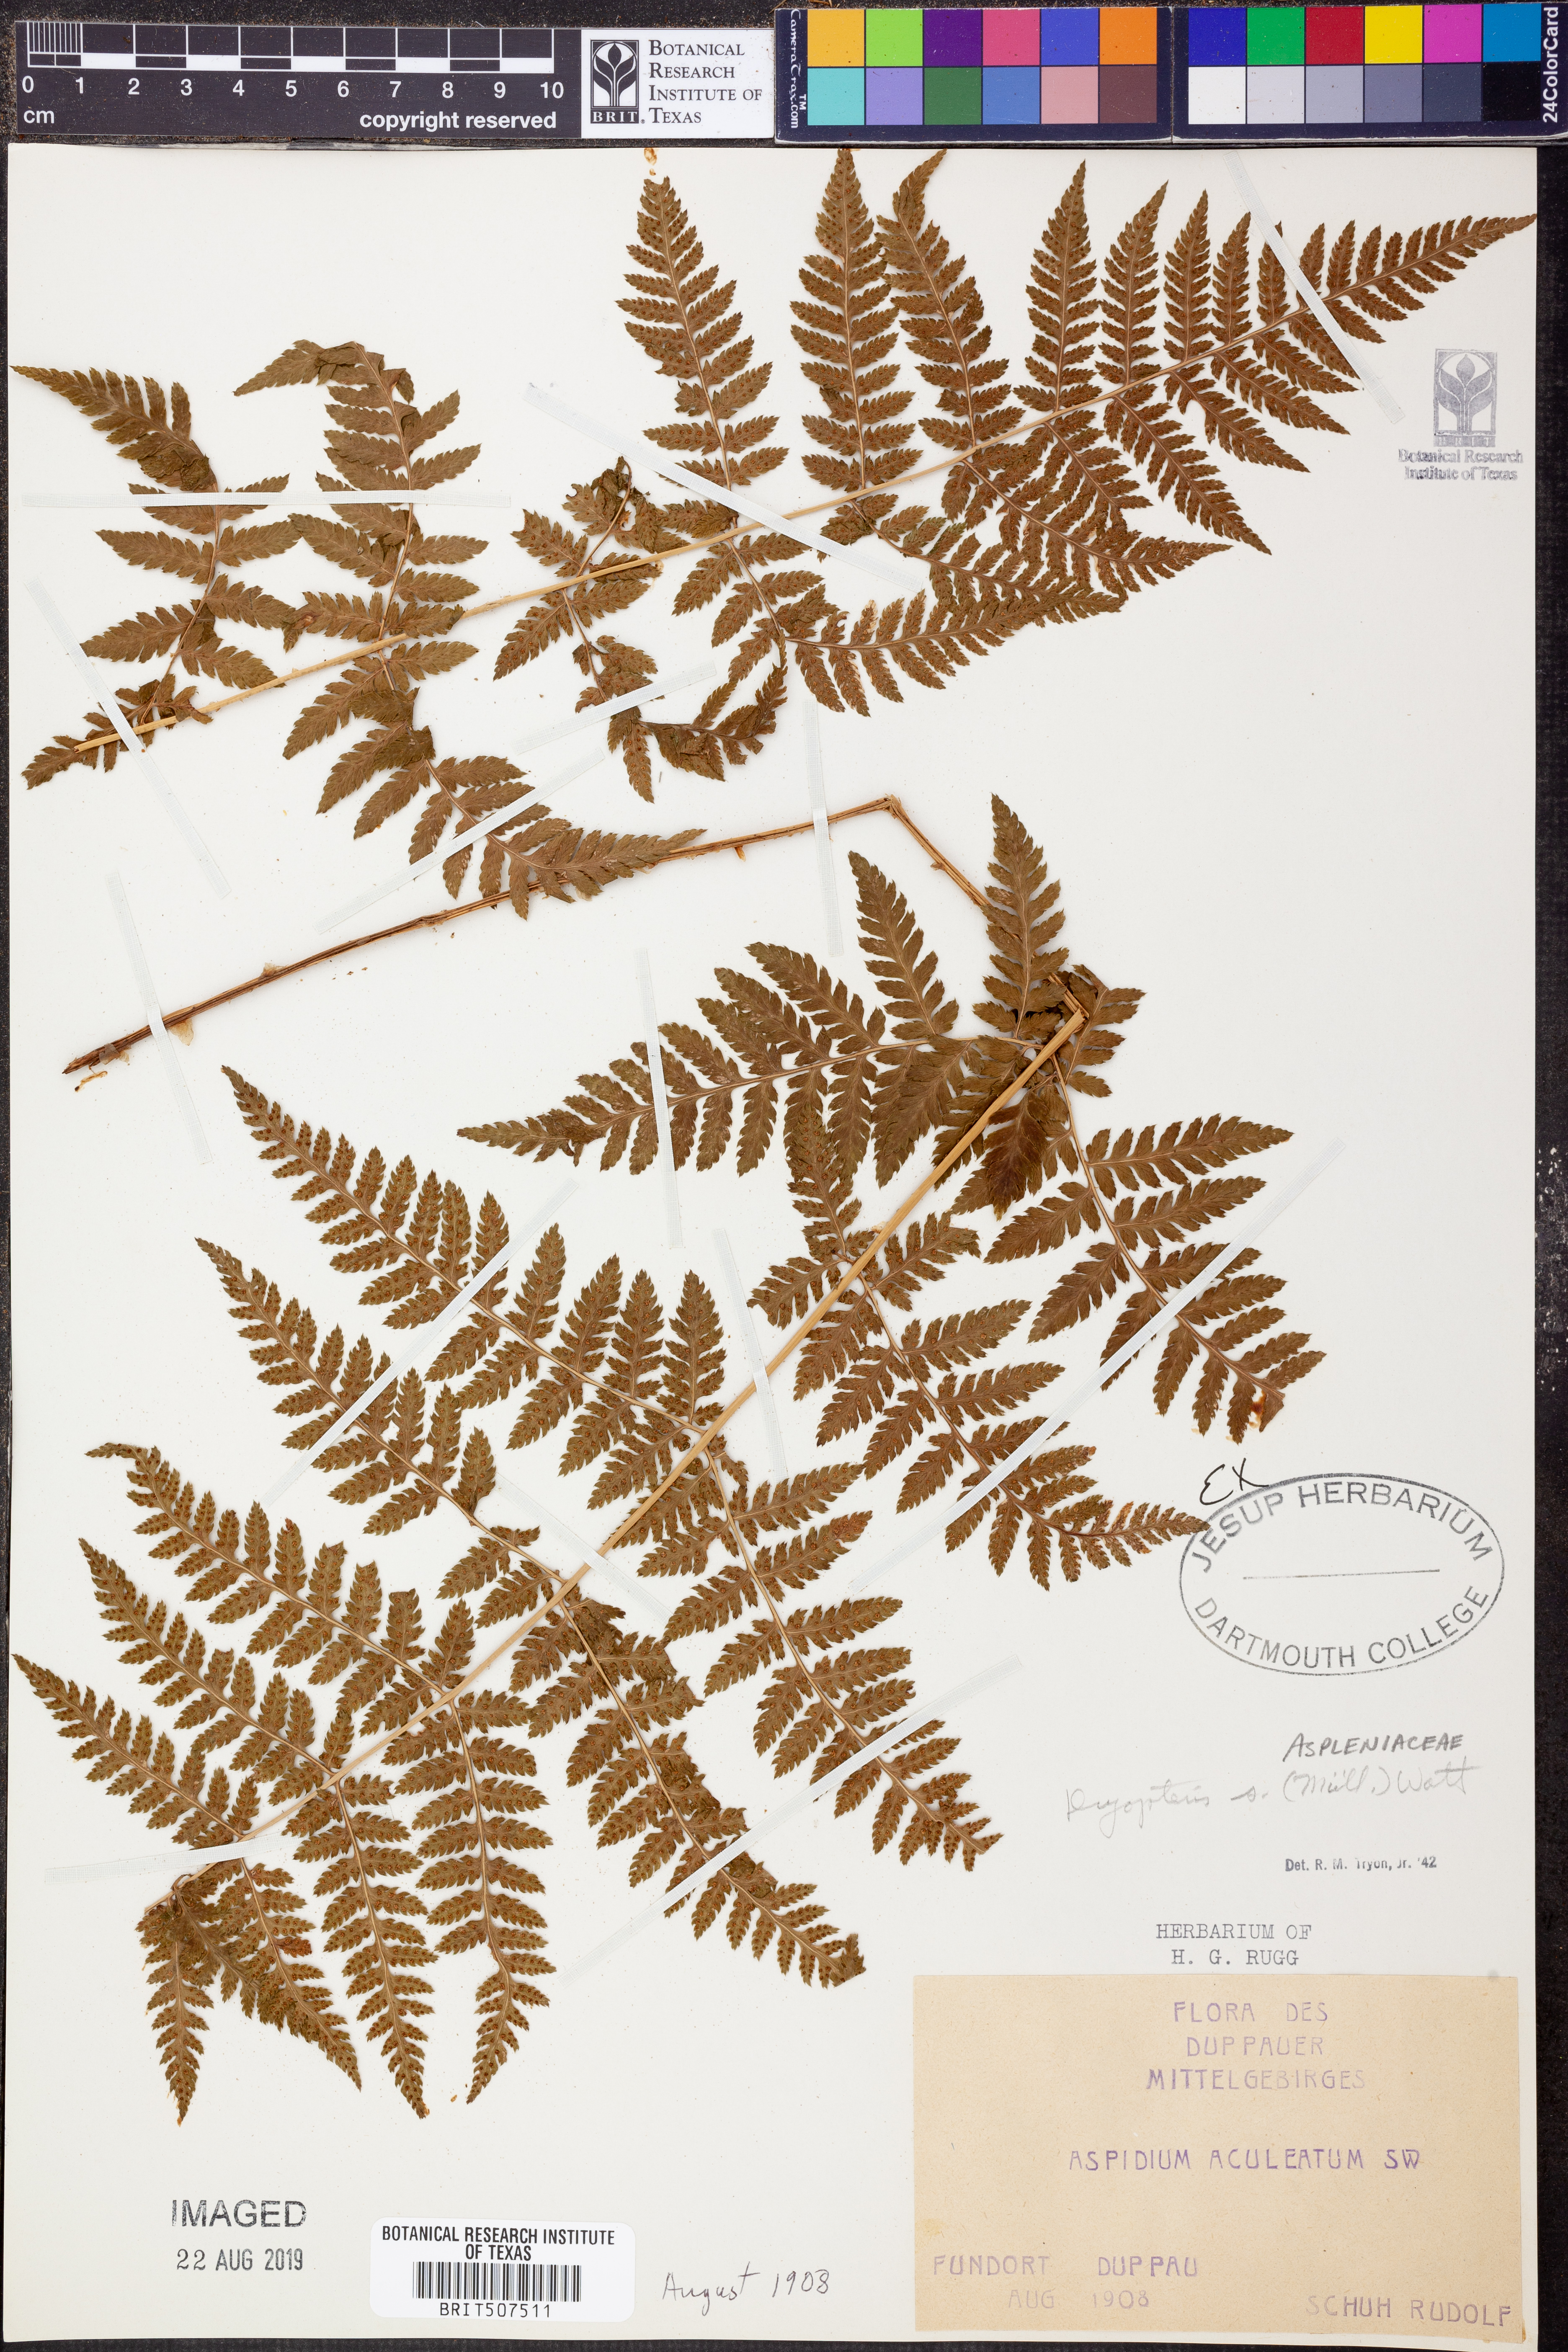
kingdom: Plantae
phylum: Tracheophyta
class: Polypodiopsida
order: Polypodiales
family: Dryopteridaceae
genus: Dryopteris
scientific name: Dryopteris carthusiana
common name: Narrow buckler-fern
